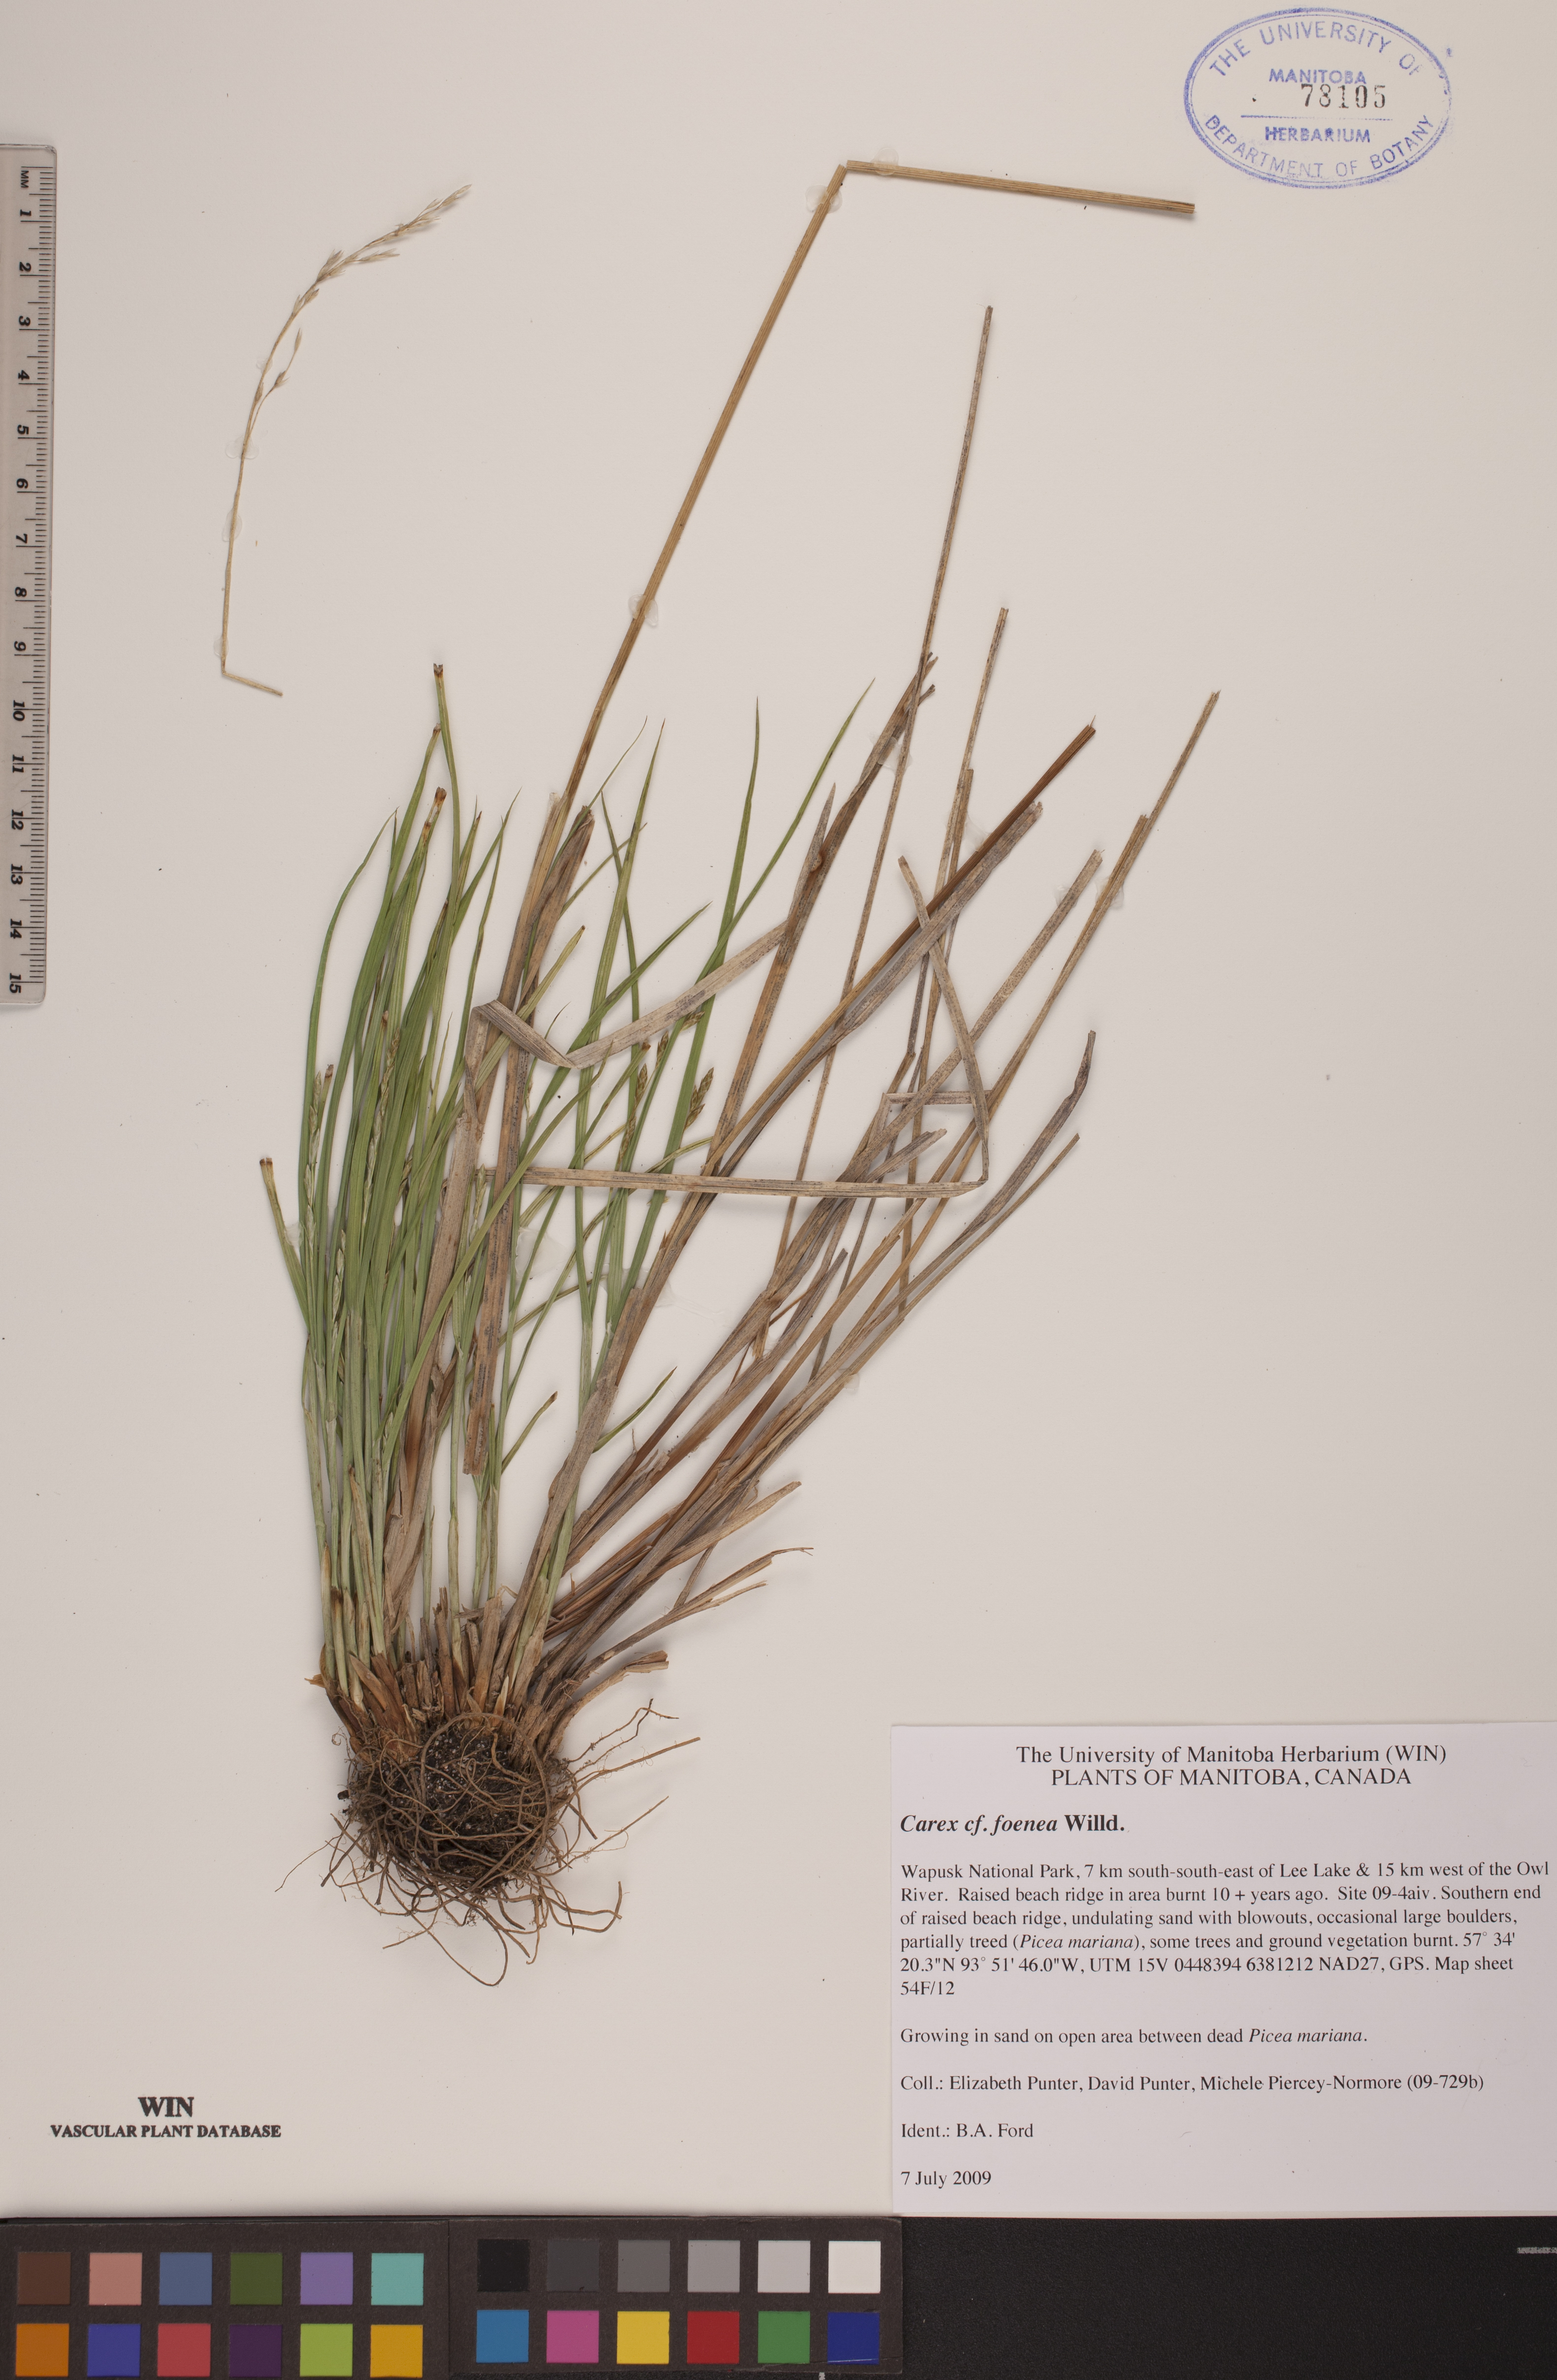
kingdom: Plantae
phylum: Tracheophyta
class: Liliopsida
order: Poales
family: Cyperaceae
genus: Carex
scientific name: Carex foenea
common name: Bronze sedge
